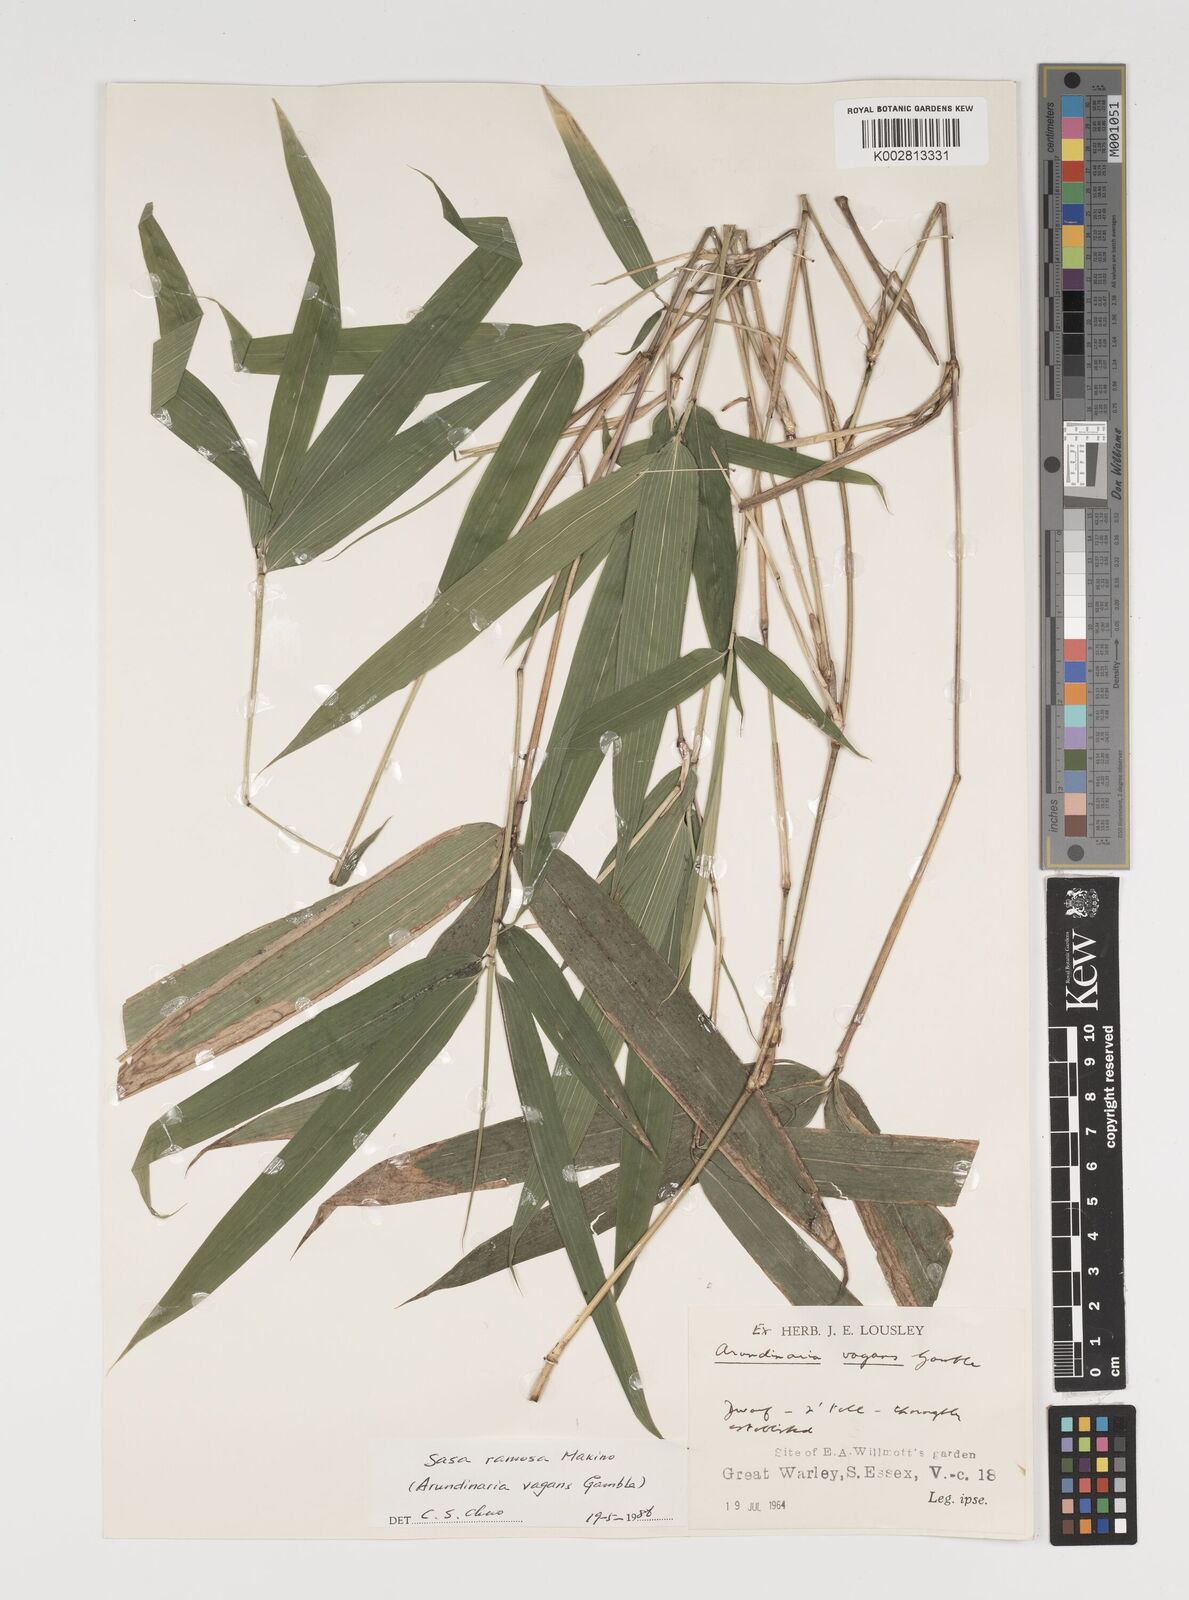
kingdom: Plantae
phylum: Tracheophyta
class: Liliopsida
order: Poales
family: Poaceae
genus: Sasaella
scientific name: Sasaella ramosa
